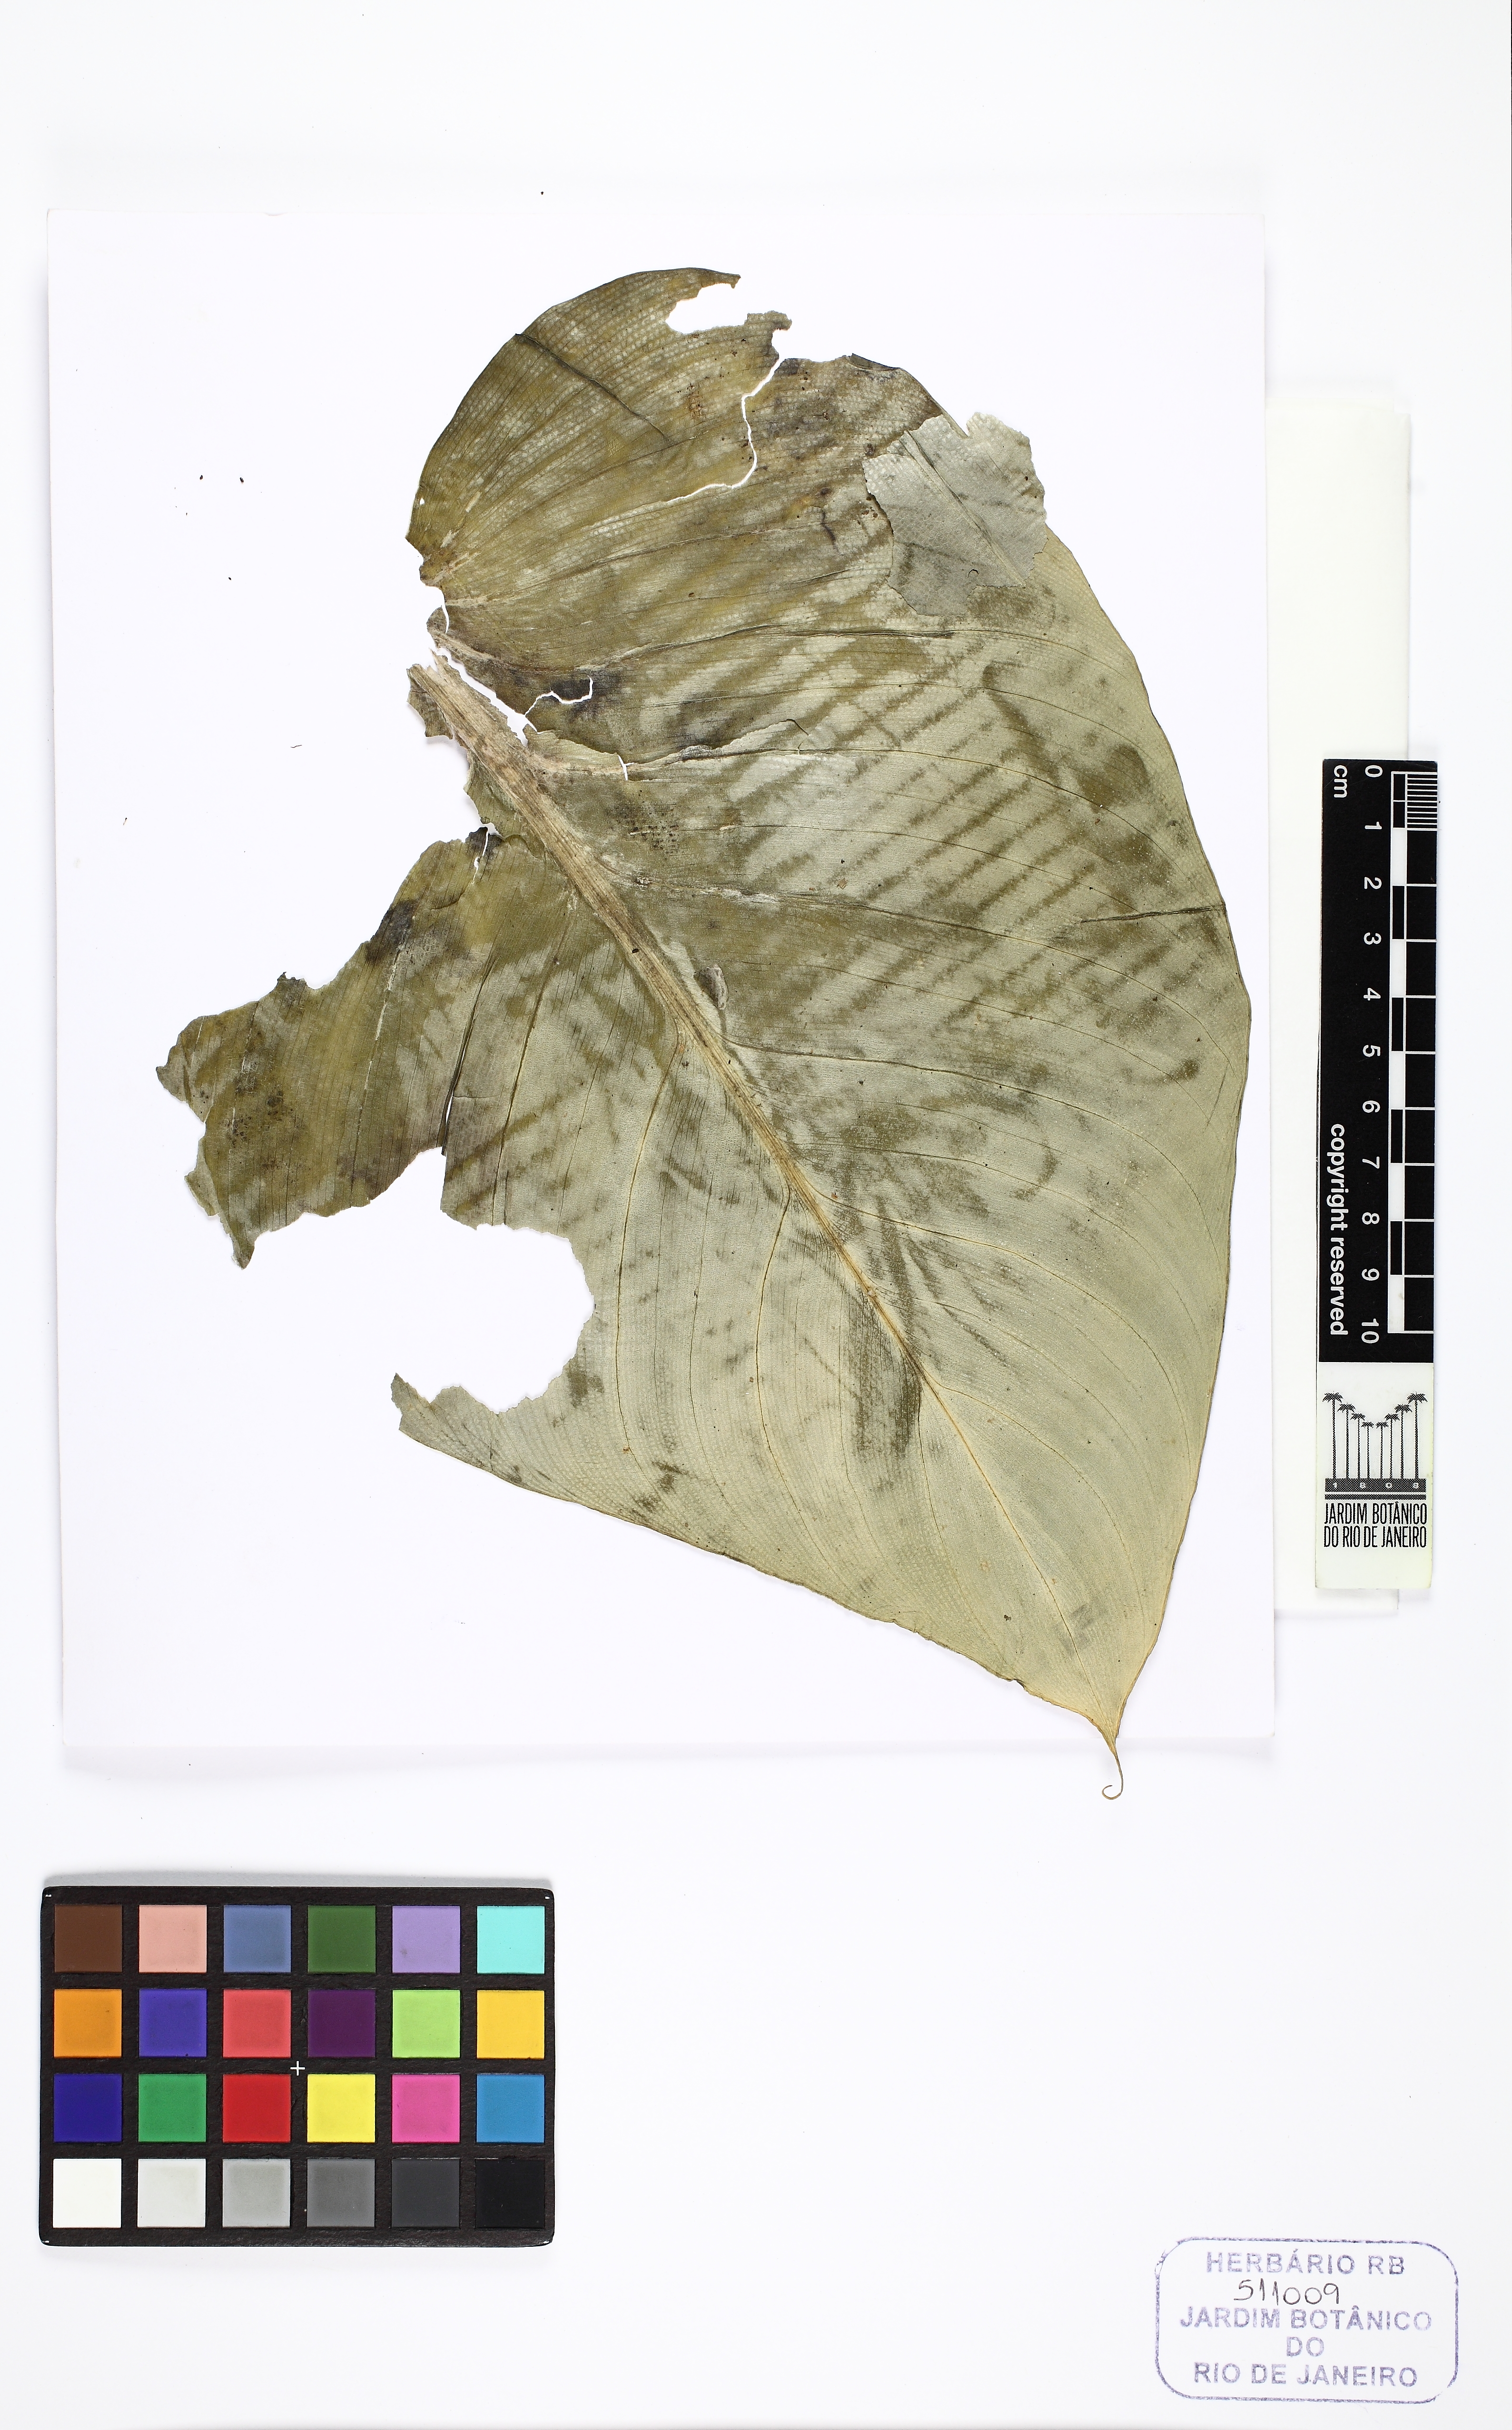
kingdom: Plantae
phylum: Tracheophyta
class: Liliopsida
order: Alismatales
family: Araceae
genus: Xanthosoma
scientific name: Xanthosoma
